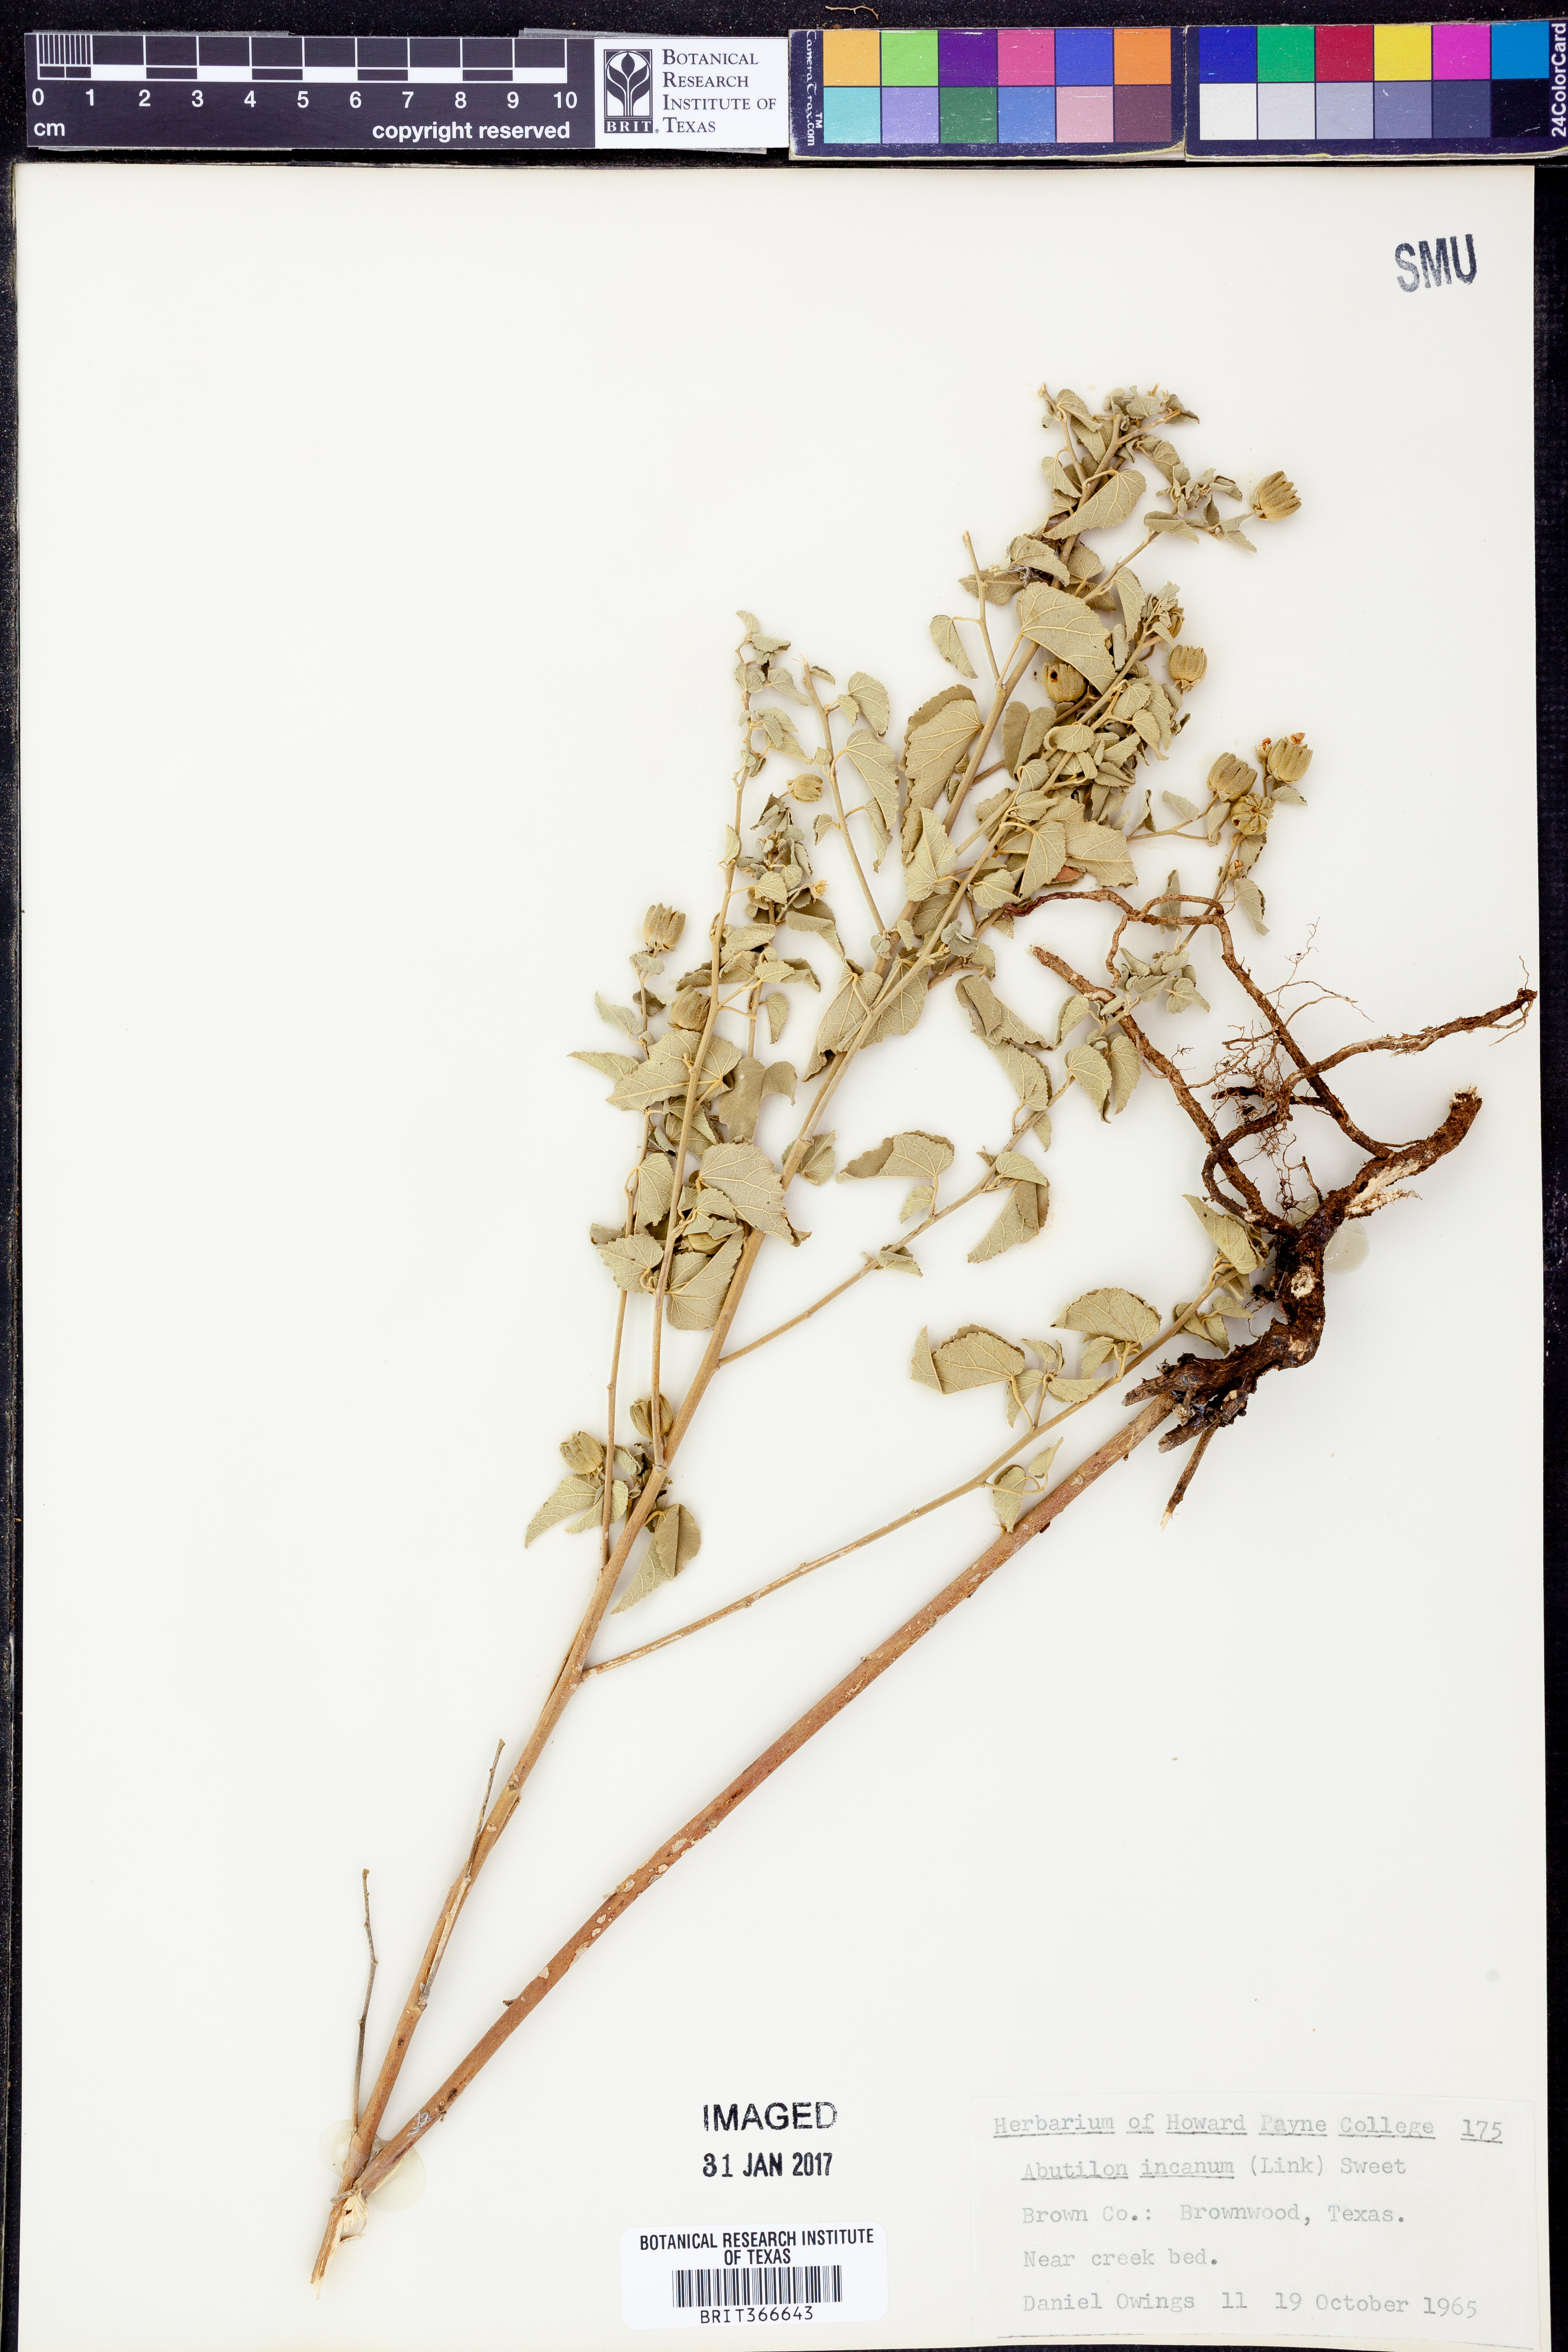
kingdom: Plantae
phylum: Tracheophyta
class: Magnoliopsida
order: Malvales
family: Malvaceae
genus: Abutilon
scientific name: Abutilon incanum
